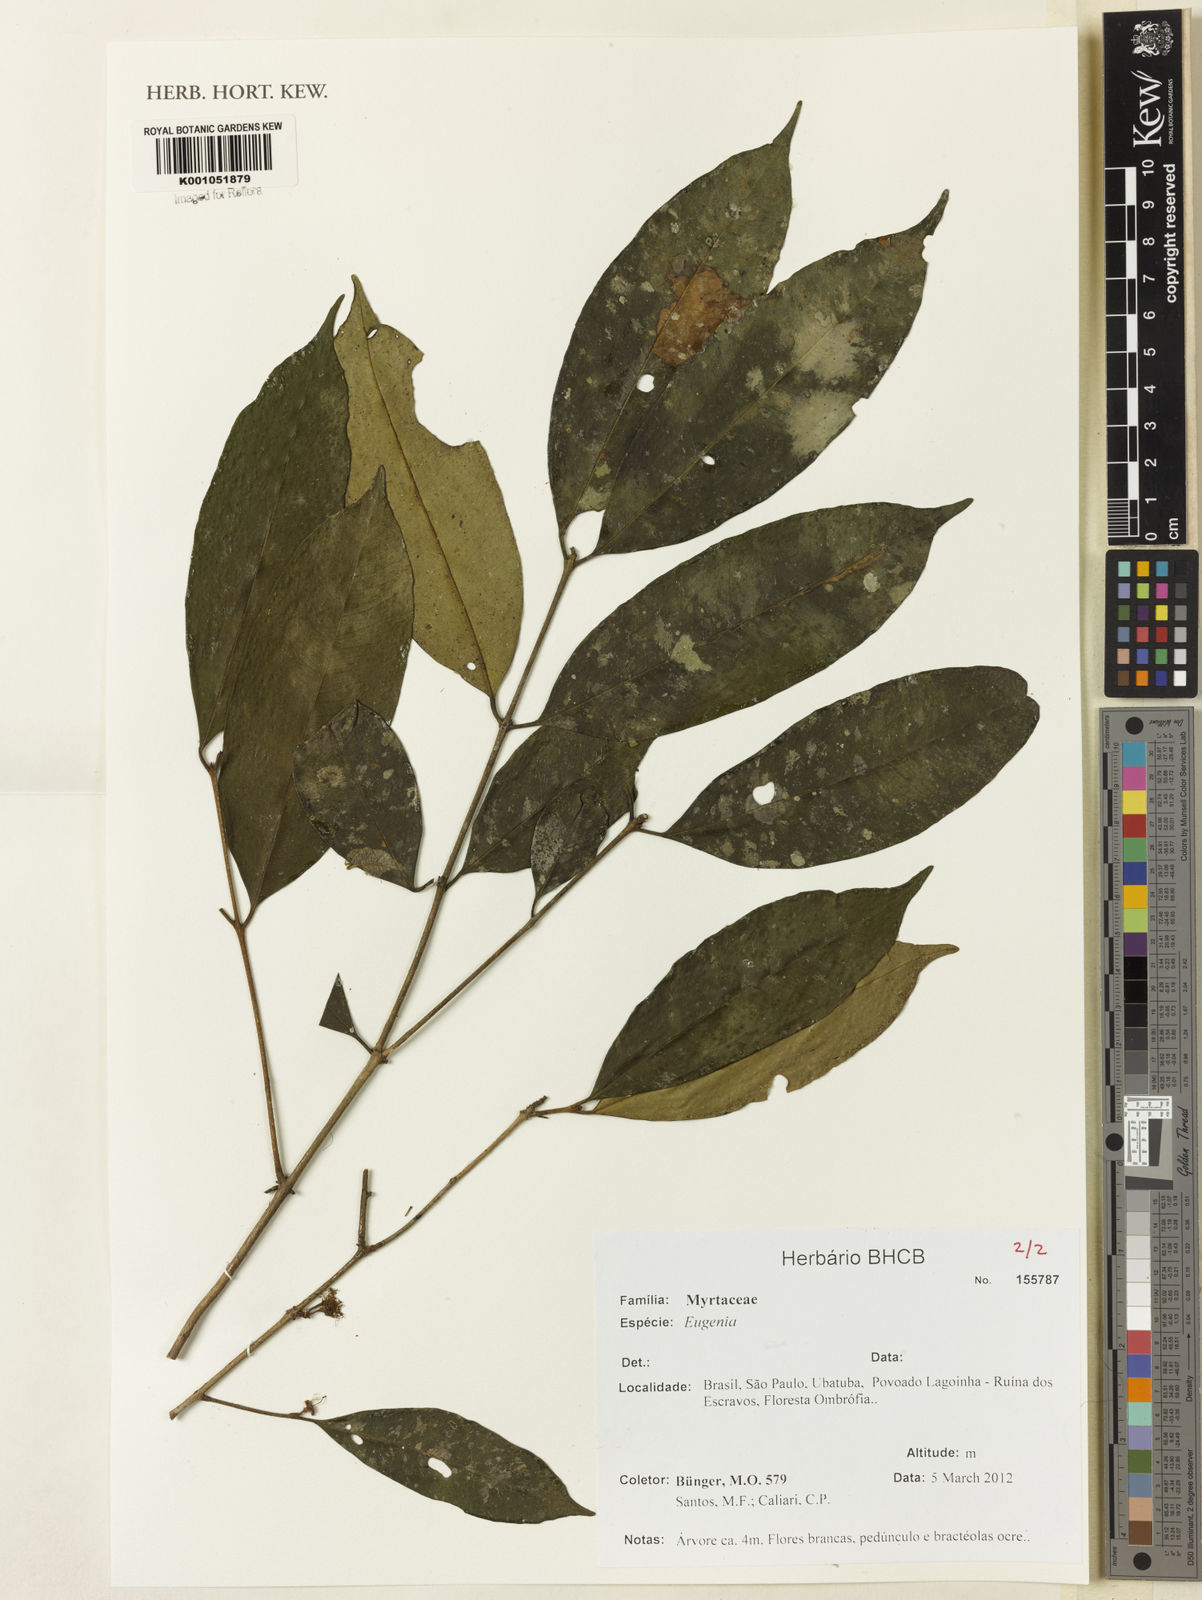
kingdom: Plantae
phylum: Tracheophyta
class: Magnoliopsida
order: Myrtales
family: Myrtaceae
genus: Eugenia
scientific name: Eugenia pisiformis
